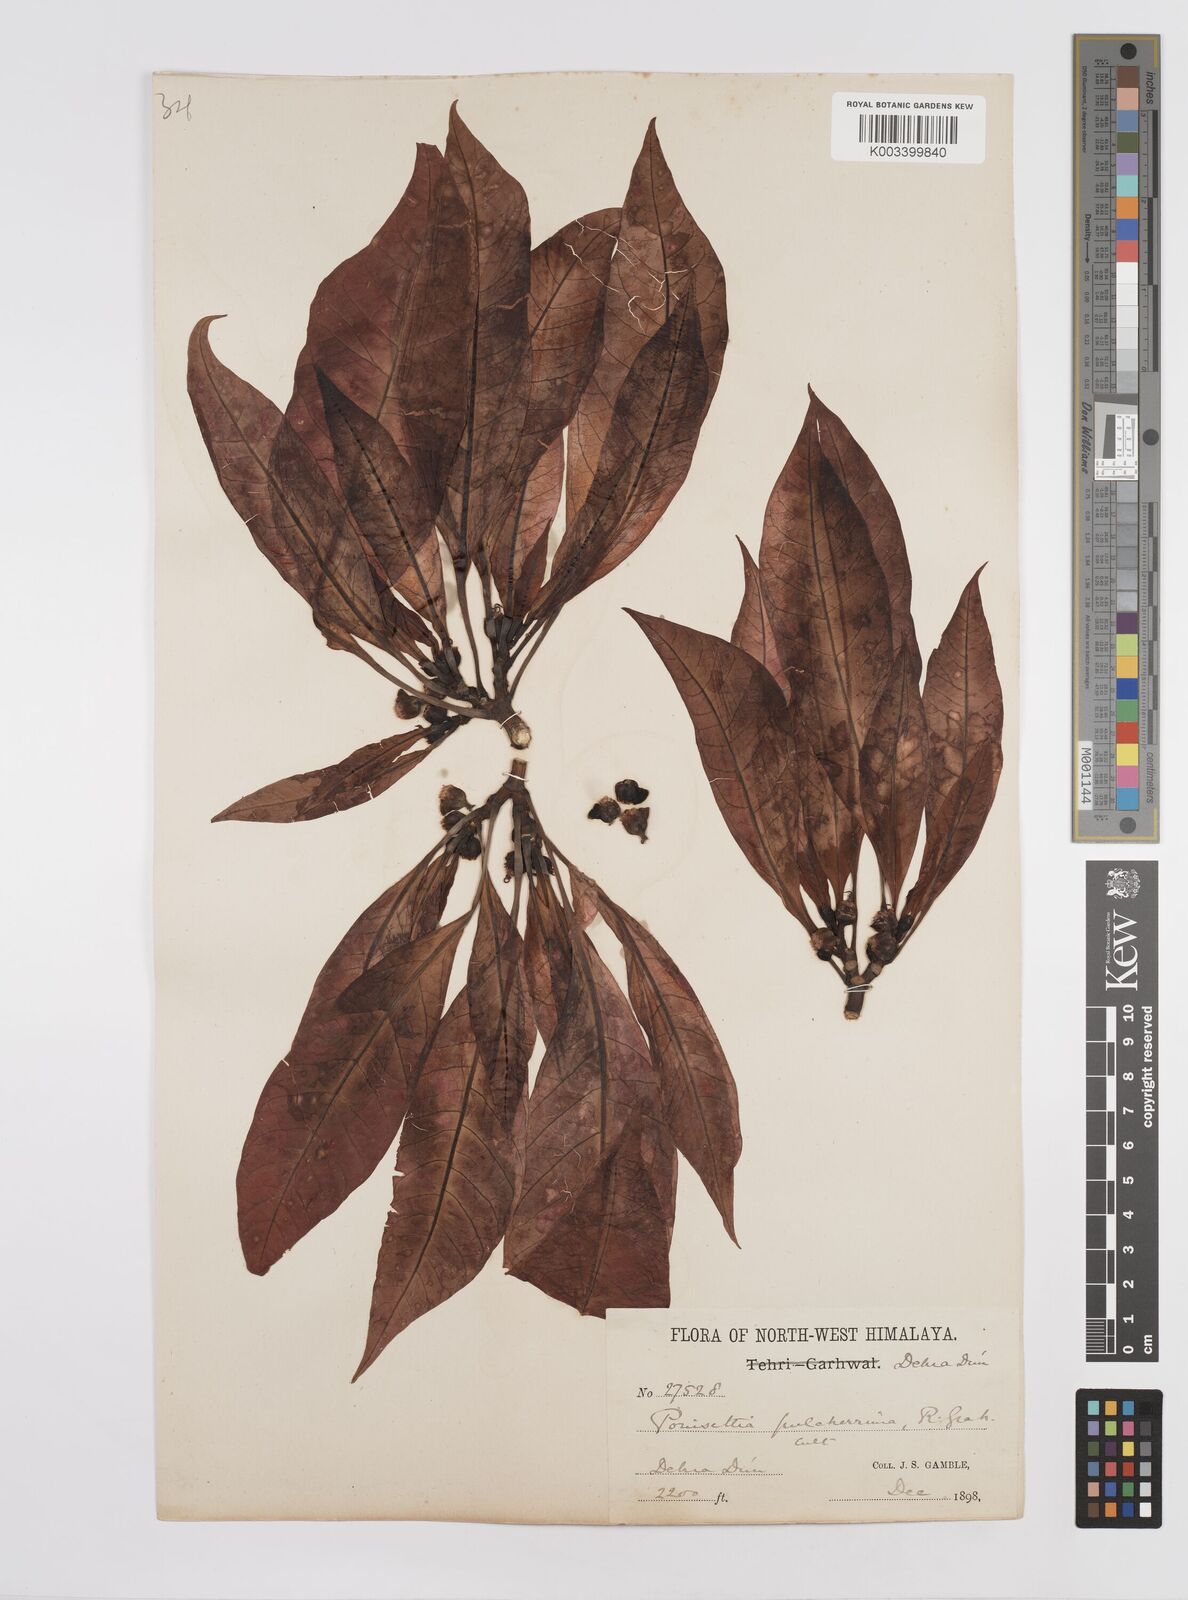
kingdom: Plantae
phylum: Tracheophyta
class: Magnoliopsida
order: Malpighiales
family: Euphorbiaceae
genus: Euphorbia
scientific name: Euphorbia pulcherrima
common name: Christmas-flower
